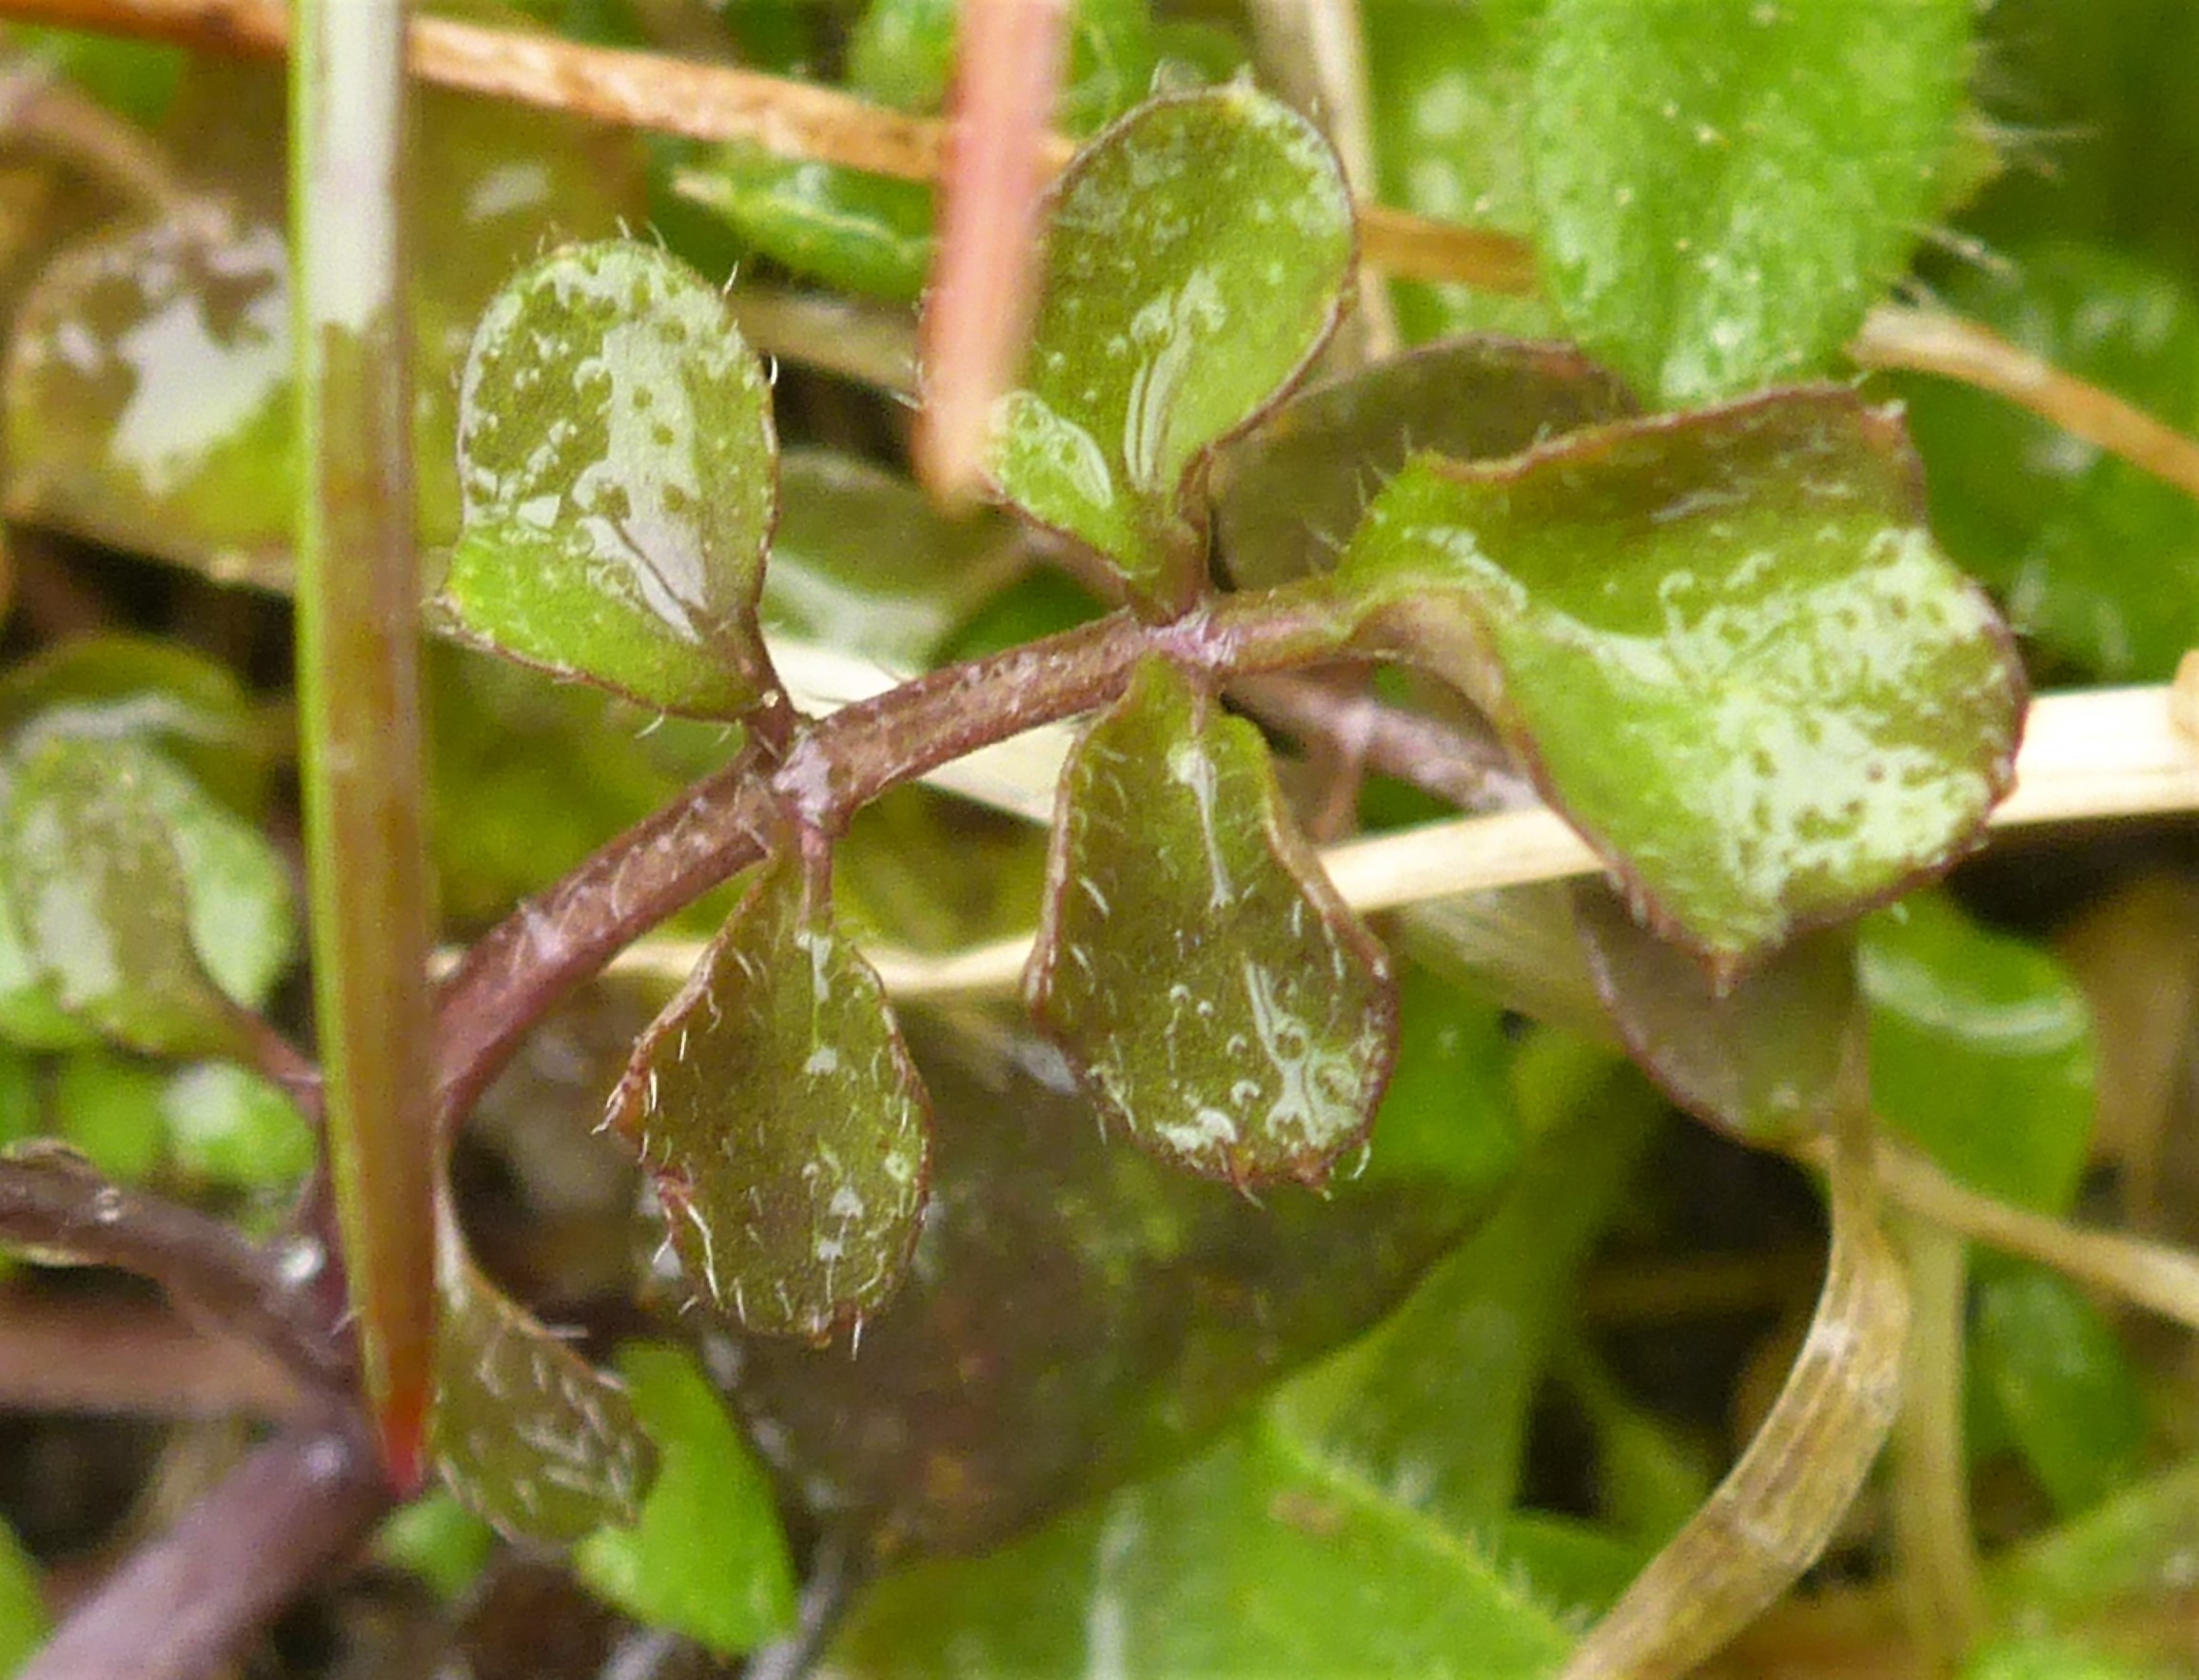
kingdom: Plantae
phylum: Tracheophyta
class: Magnoliopsida
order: Brassicales
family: Brassicaceae
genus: Cardamine
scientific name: Cardamine hirsuta
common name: Roset-springklap
